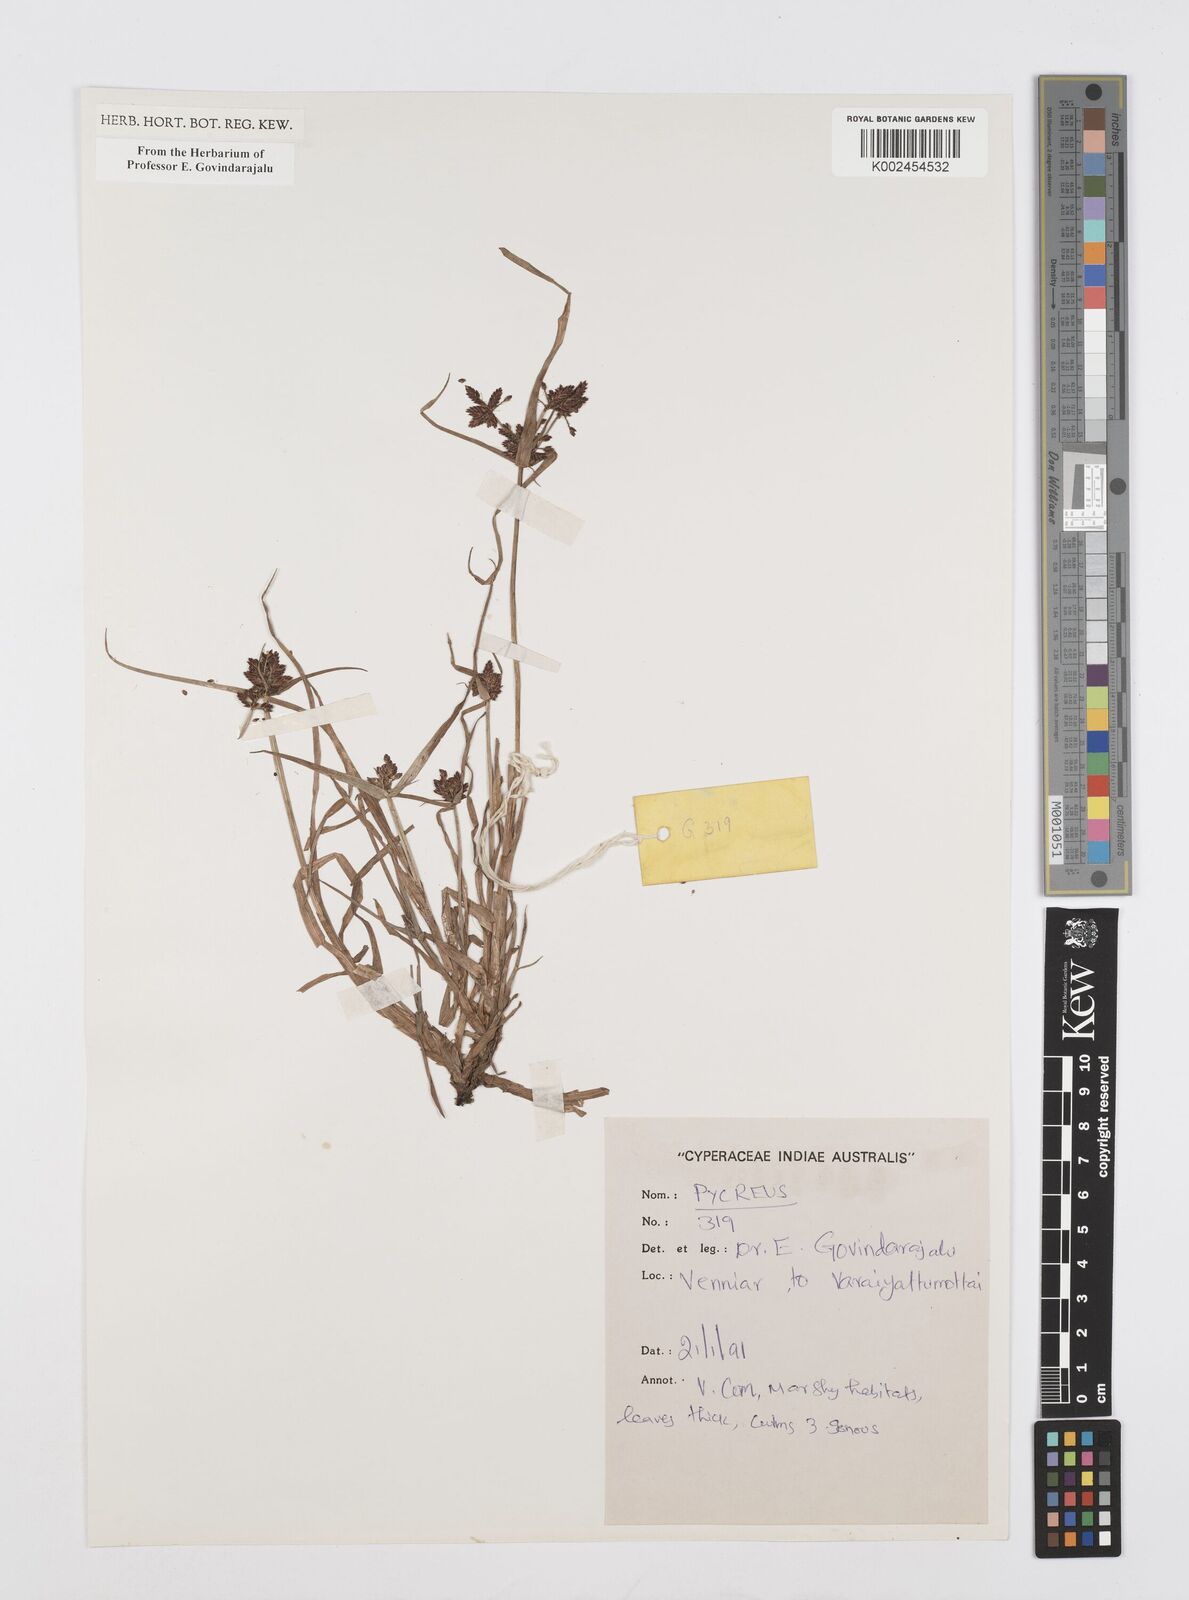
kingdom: Plantae
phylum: Tracheophyta
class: Liliopsida
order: Poales
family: Cyperaceae
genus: Cyperus
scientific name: Cyperus
